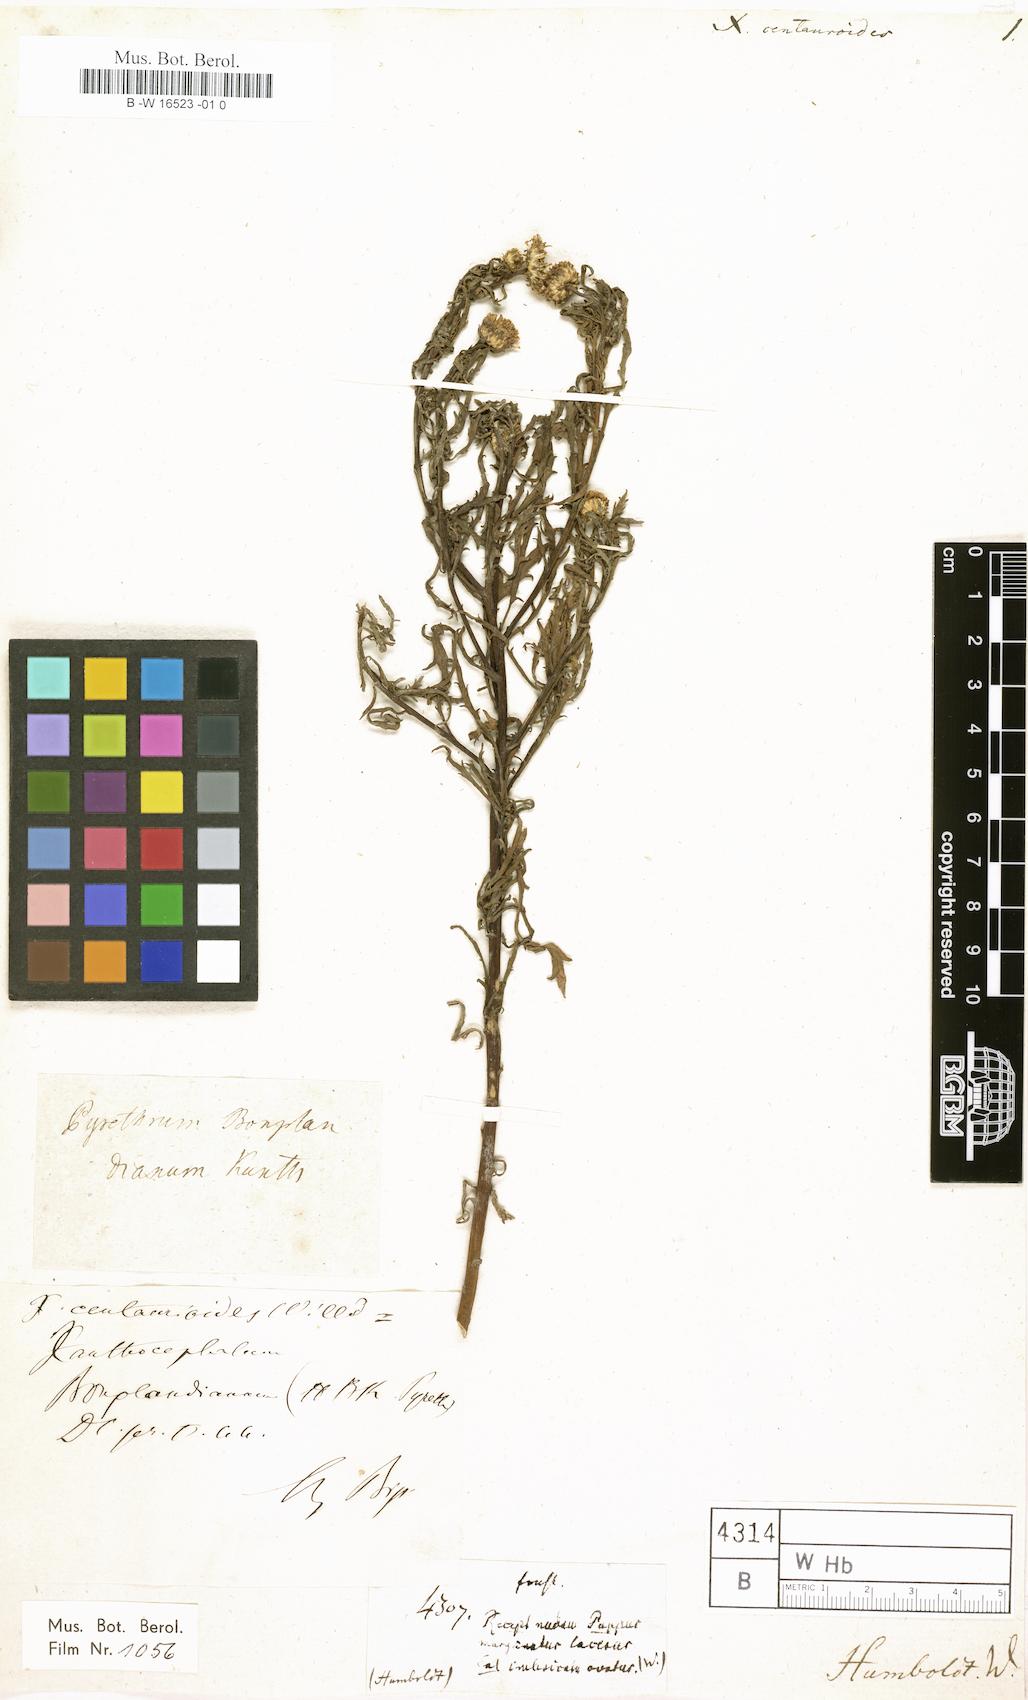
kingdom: Plantae
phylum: Tracheophyta
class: Magnoliopsida
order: Asterales
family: Asteraceae
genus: Xanthocephalum
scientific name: Xanthocephalum centauroides
